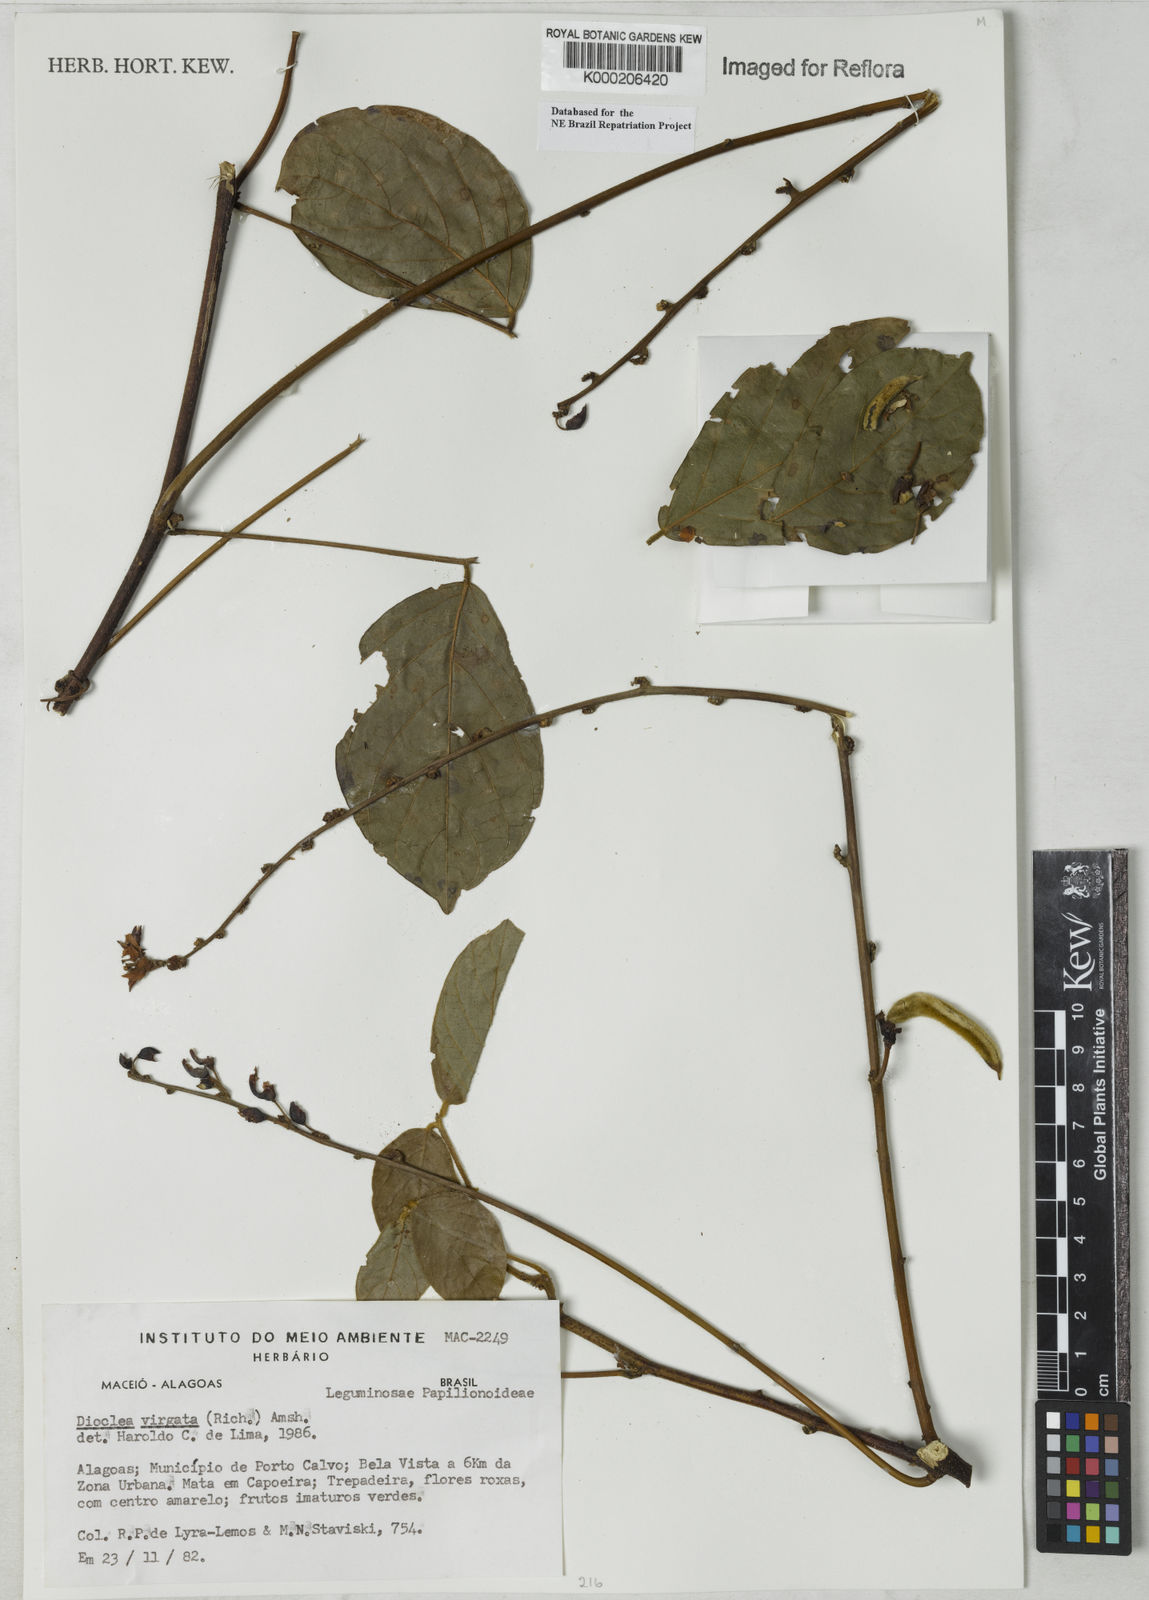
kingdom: Plantae
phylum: Tracheophyta
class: Magnoliopsida
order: Fabales
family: Fabaceae
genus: Dioclea
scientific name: Dioclea virgata
